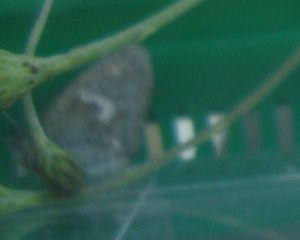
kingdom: Animalia
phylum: Arthropoda
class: Insecta
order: Lepidoptera
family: Nymphalidae
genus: Coenonympha
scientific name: Coenonympha tullia
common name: Large Heath
